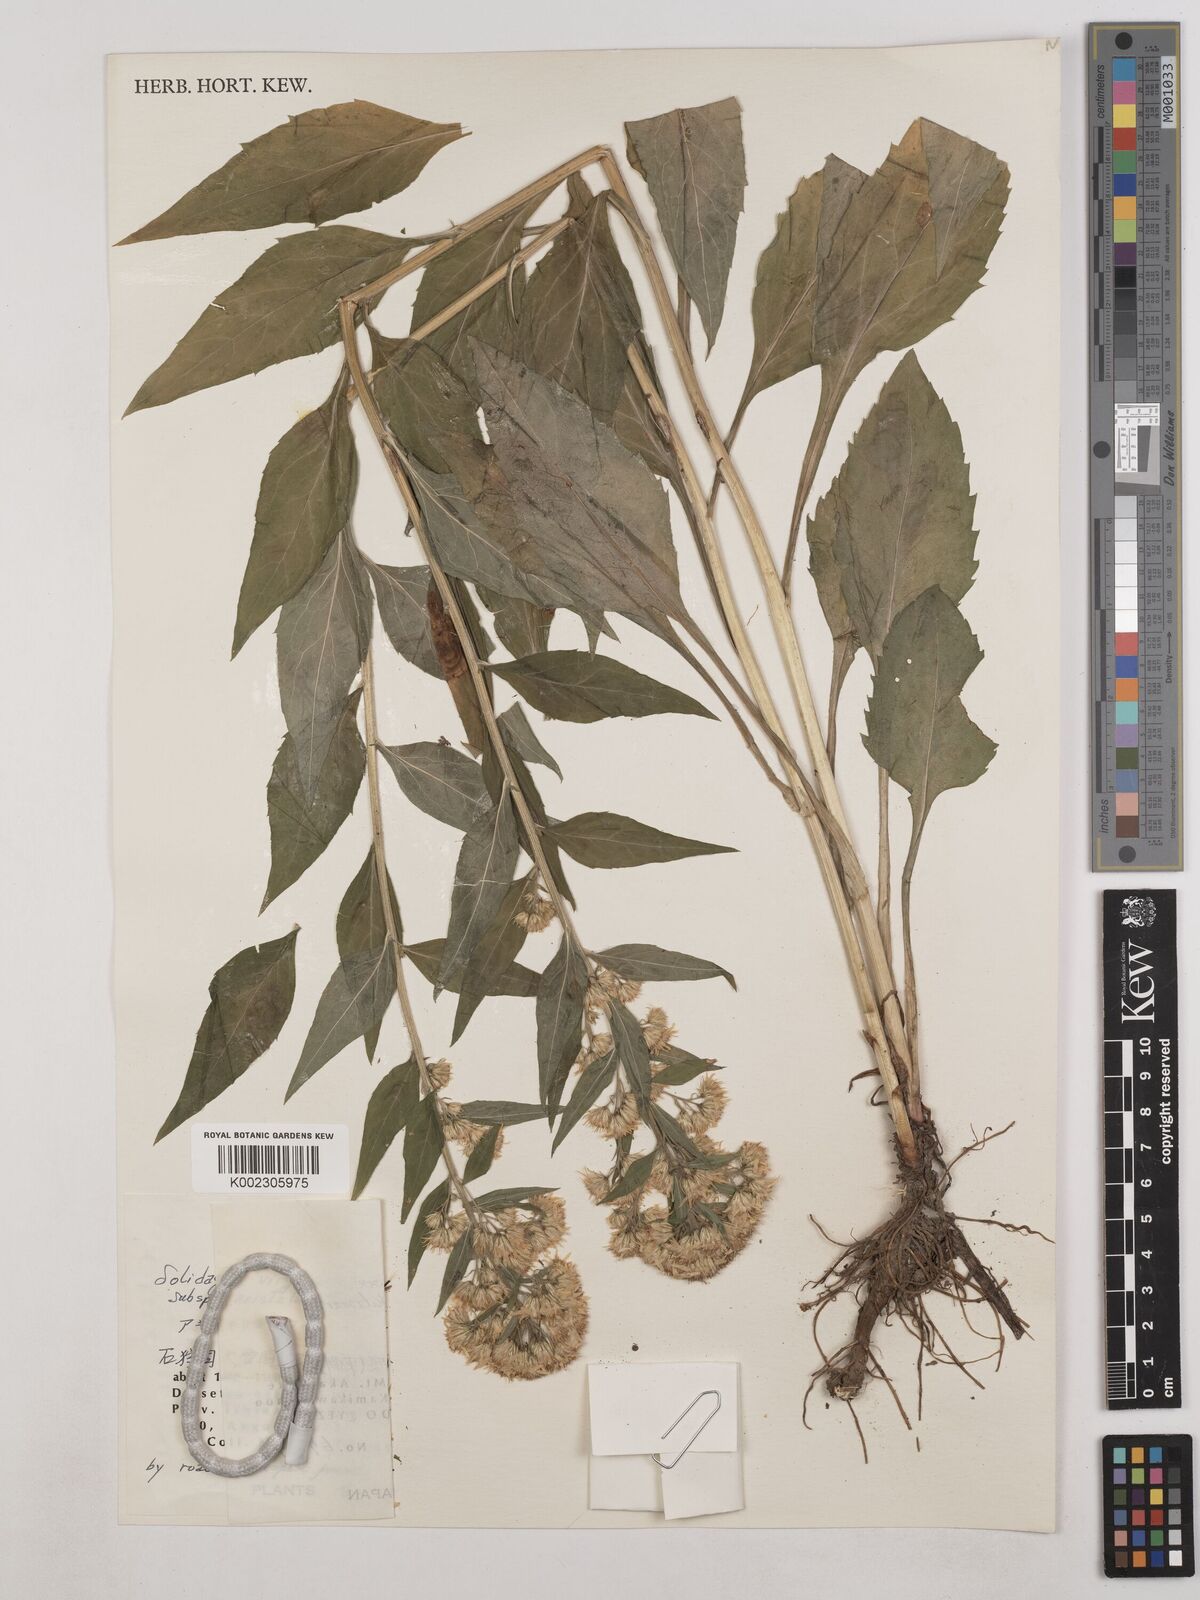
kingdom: Plantae
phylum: Tracheophyta
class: Magnoliopsida
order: Asterales
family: Asteraceae
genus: Solidago
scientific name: Solidago virgaurea
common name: Goldenrod
